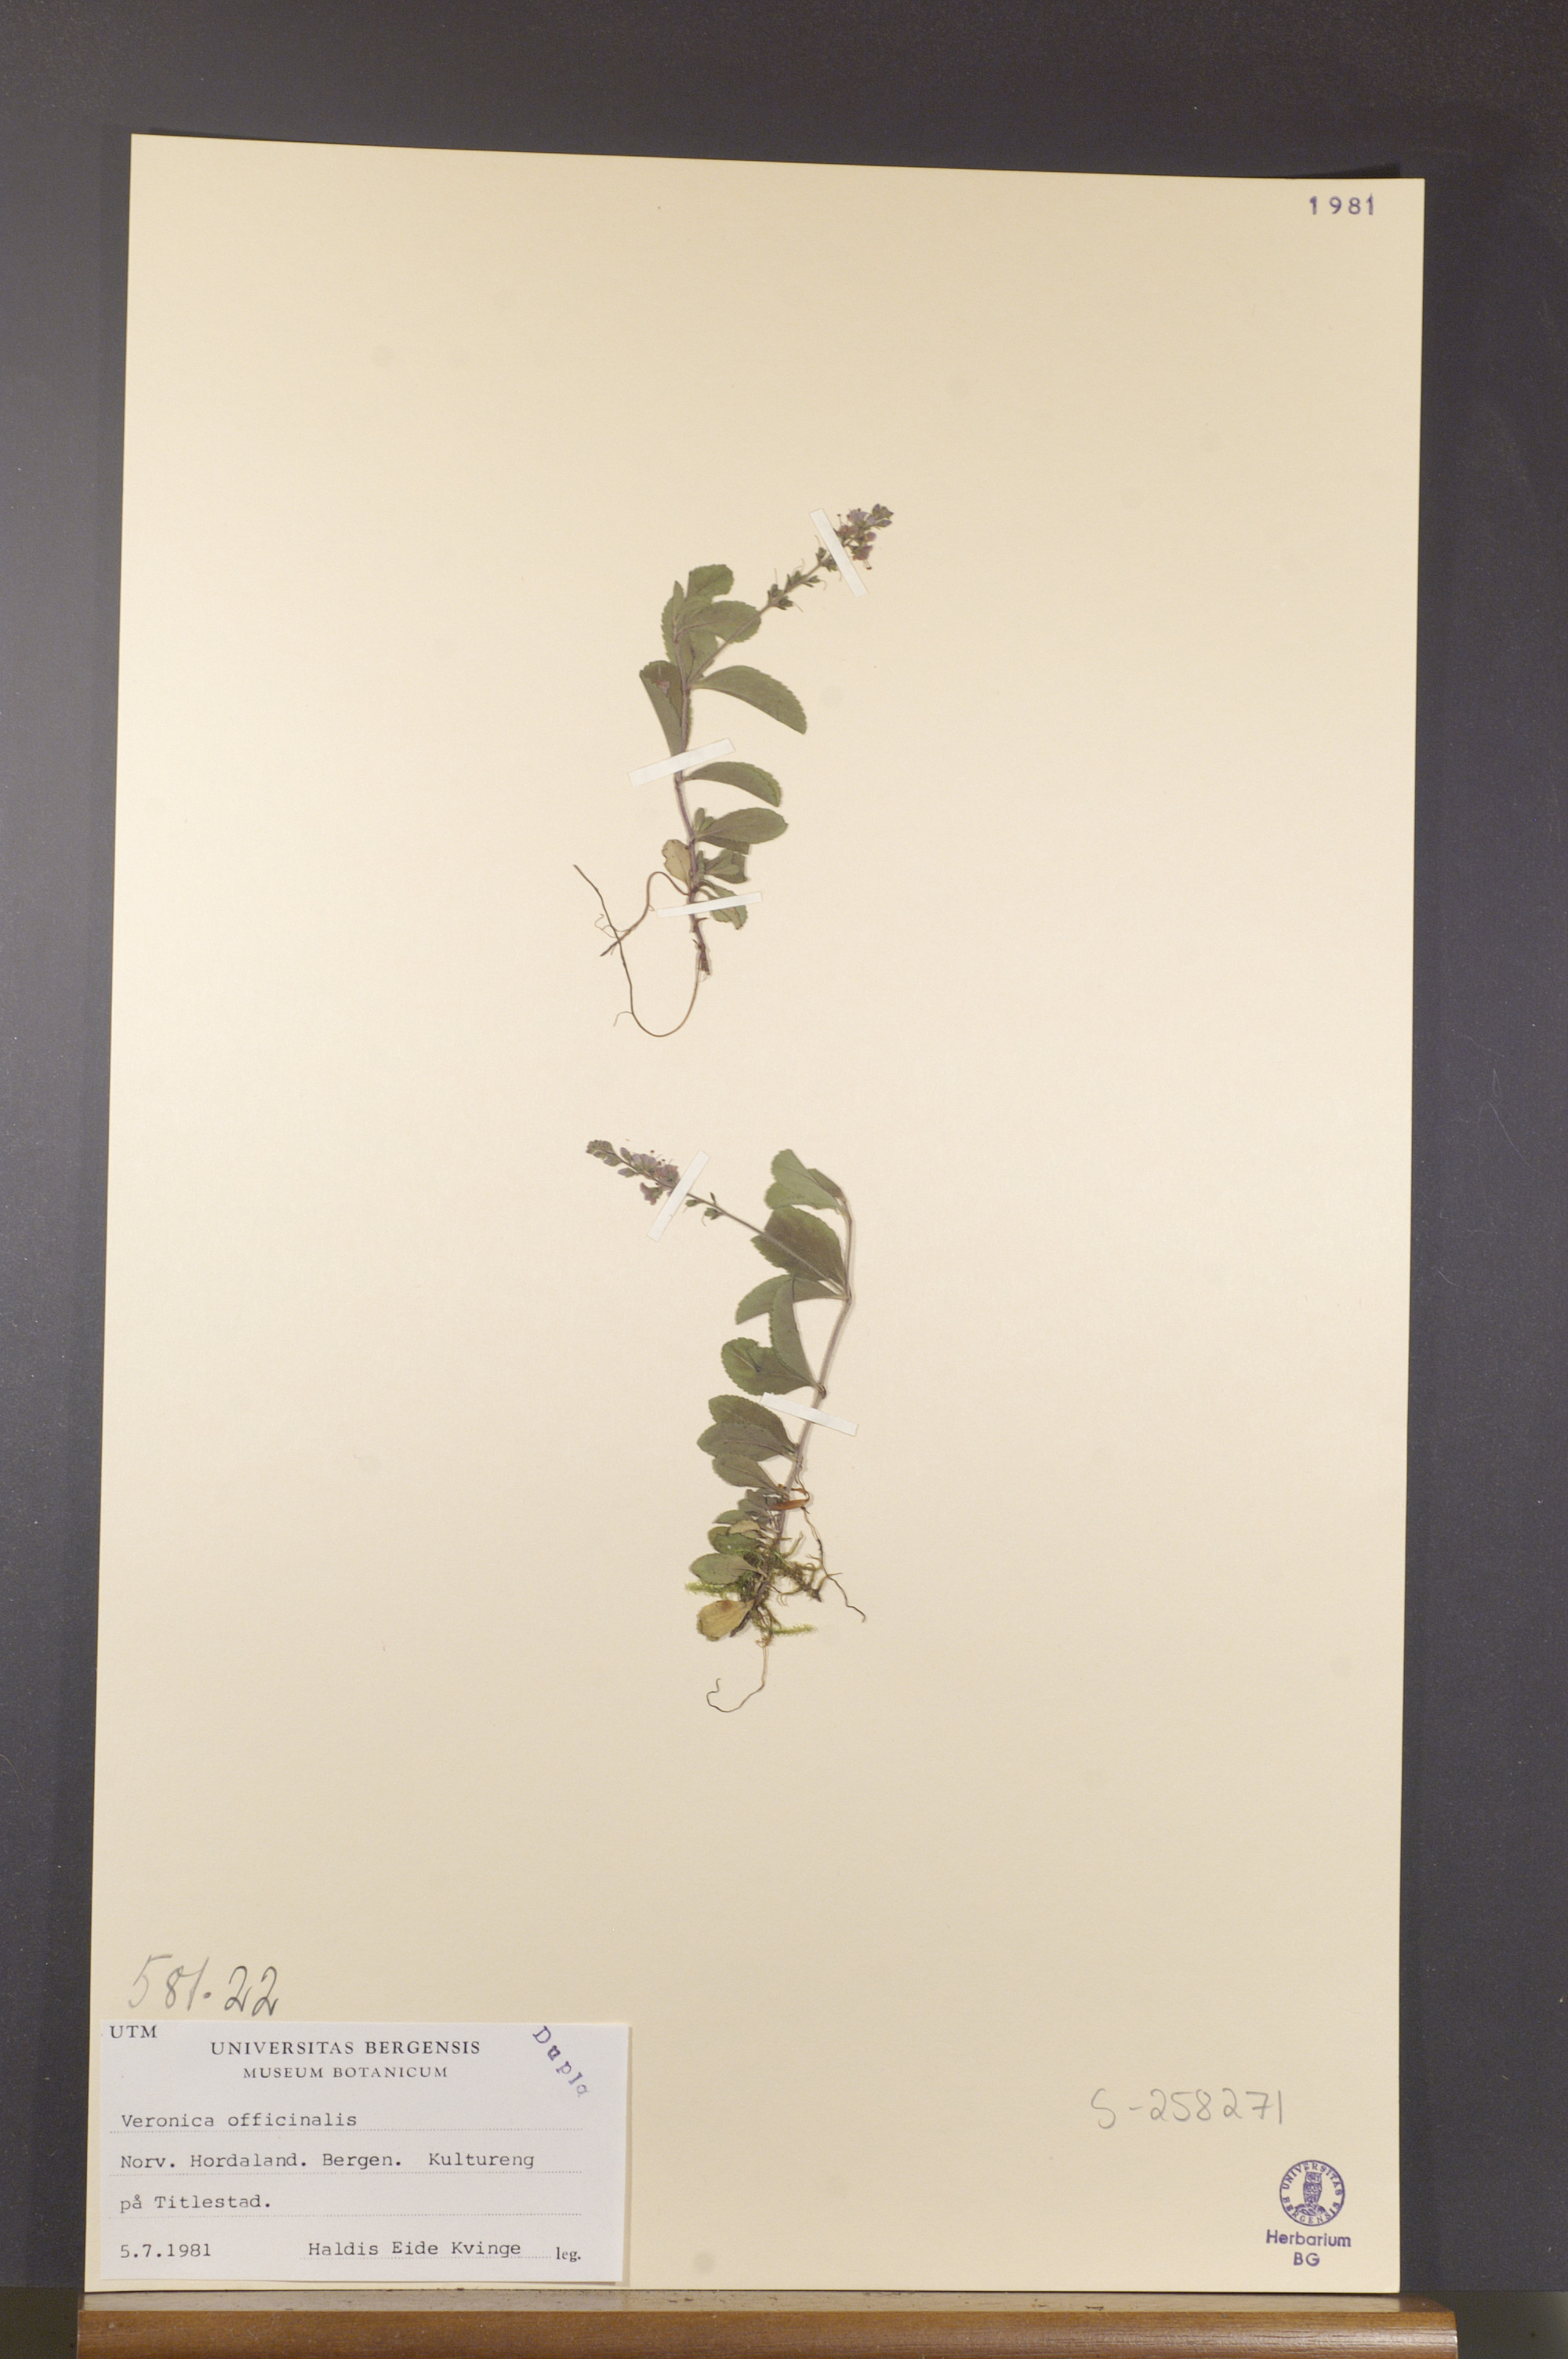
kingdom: Plantae
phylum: Tracheophyta
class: Magnoliopsida
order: Lamiales
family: Plantaginaceae
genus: Veronica
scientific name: Veronica officinalis
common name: Common speedwell
